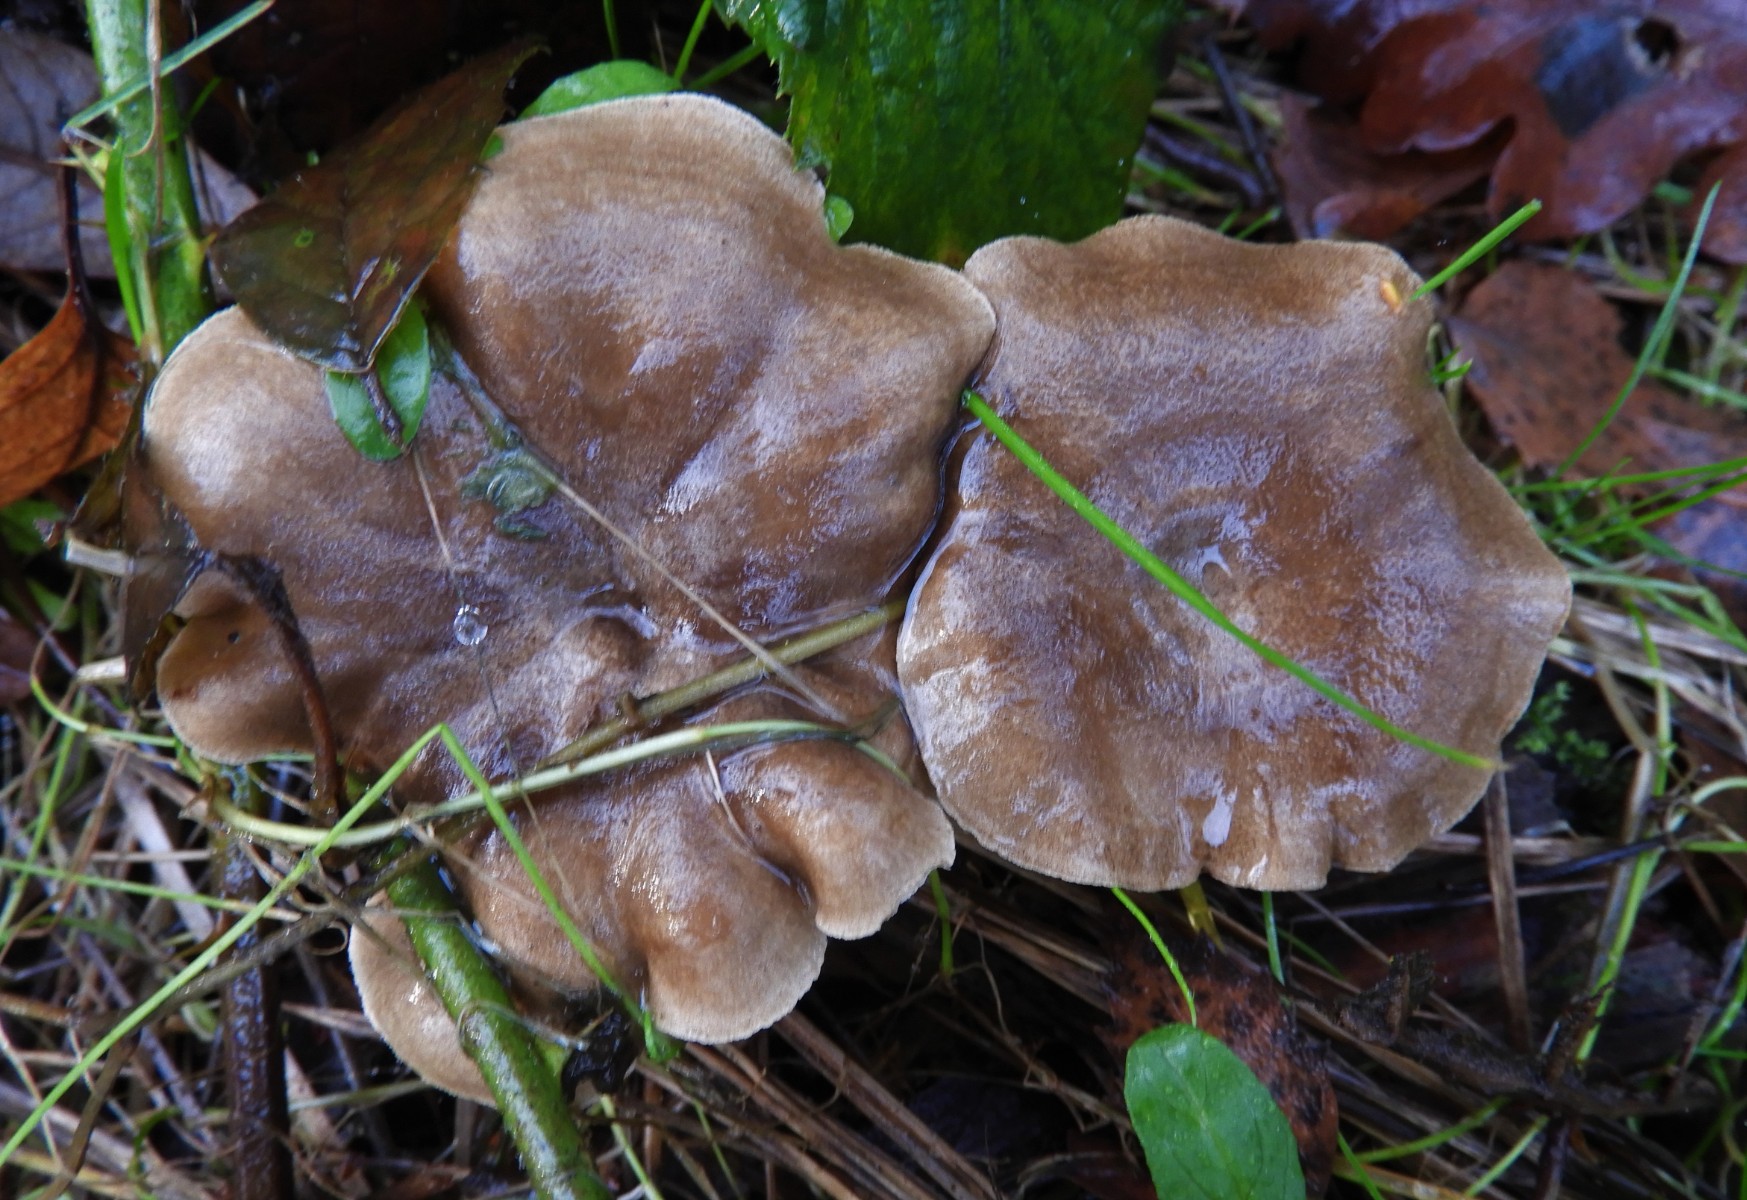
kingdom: Fungi
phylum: Basidiomycota
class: Agaricomycetes
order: Polyporales
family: Polyporaceae
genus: Lentinus
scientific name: Lentinus brumalis
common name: vinter-stilkporesvamp
